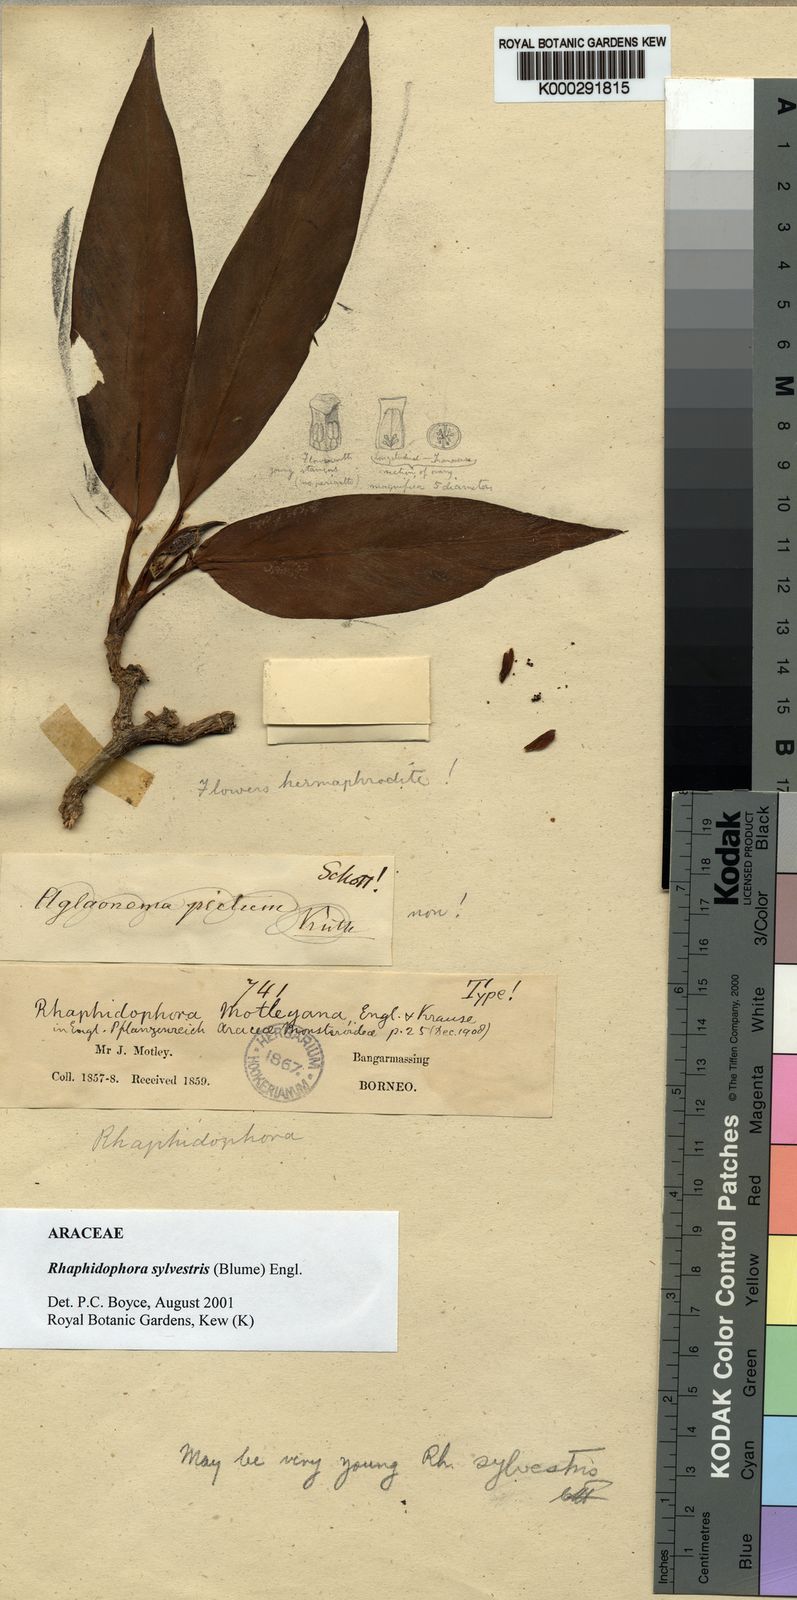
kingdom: Plantae
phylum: Tracheophyta
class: Liliopsida
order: Alismatales
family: Araceae
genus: Rhaphidophora
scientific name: Rhaphidophora sylvestris
